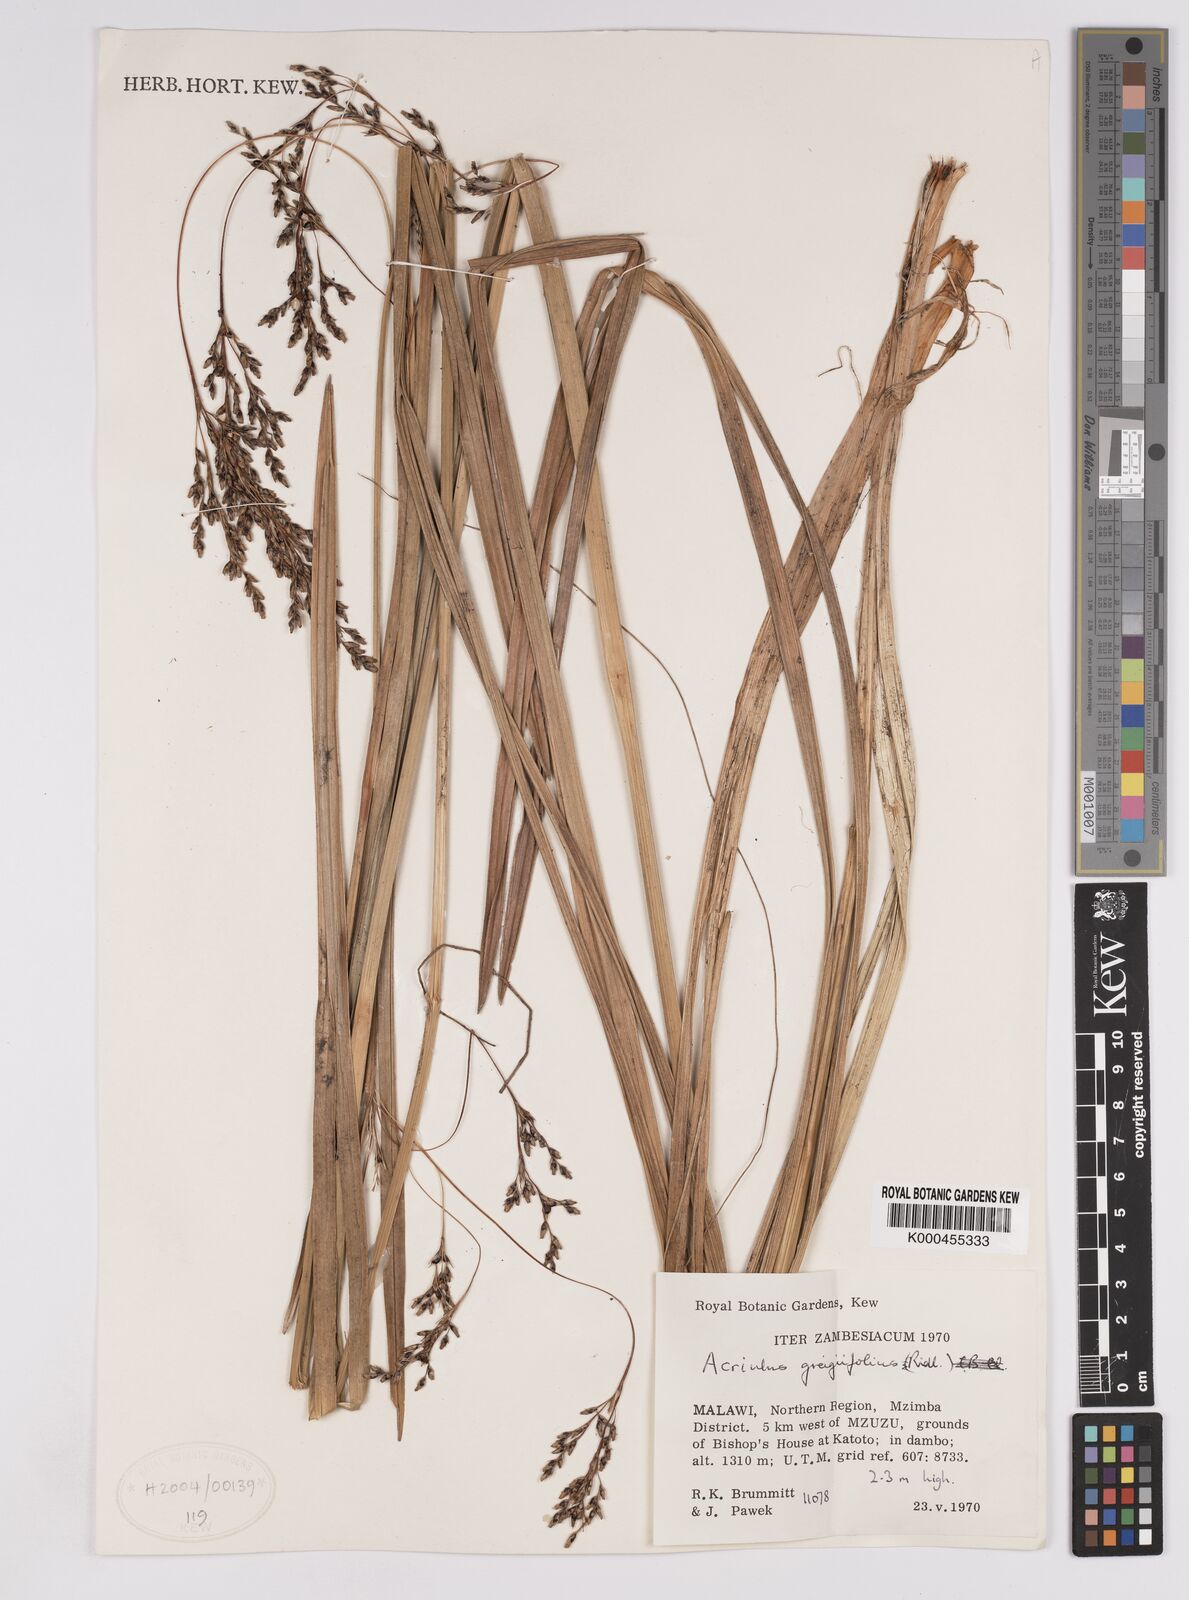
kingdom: Plantae
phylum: Tracheophyta
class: Liliopsida
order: Poales
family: Cyperaceae
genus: Scleria
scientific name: Scleria greigiifolia
